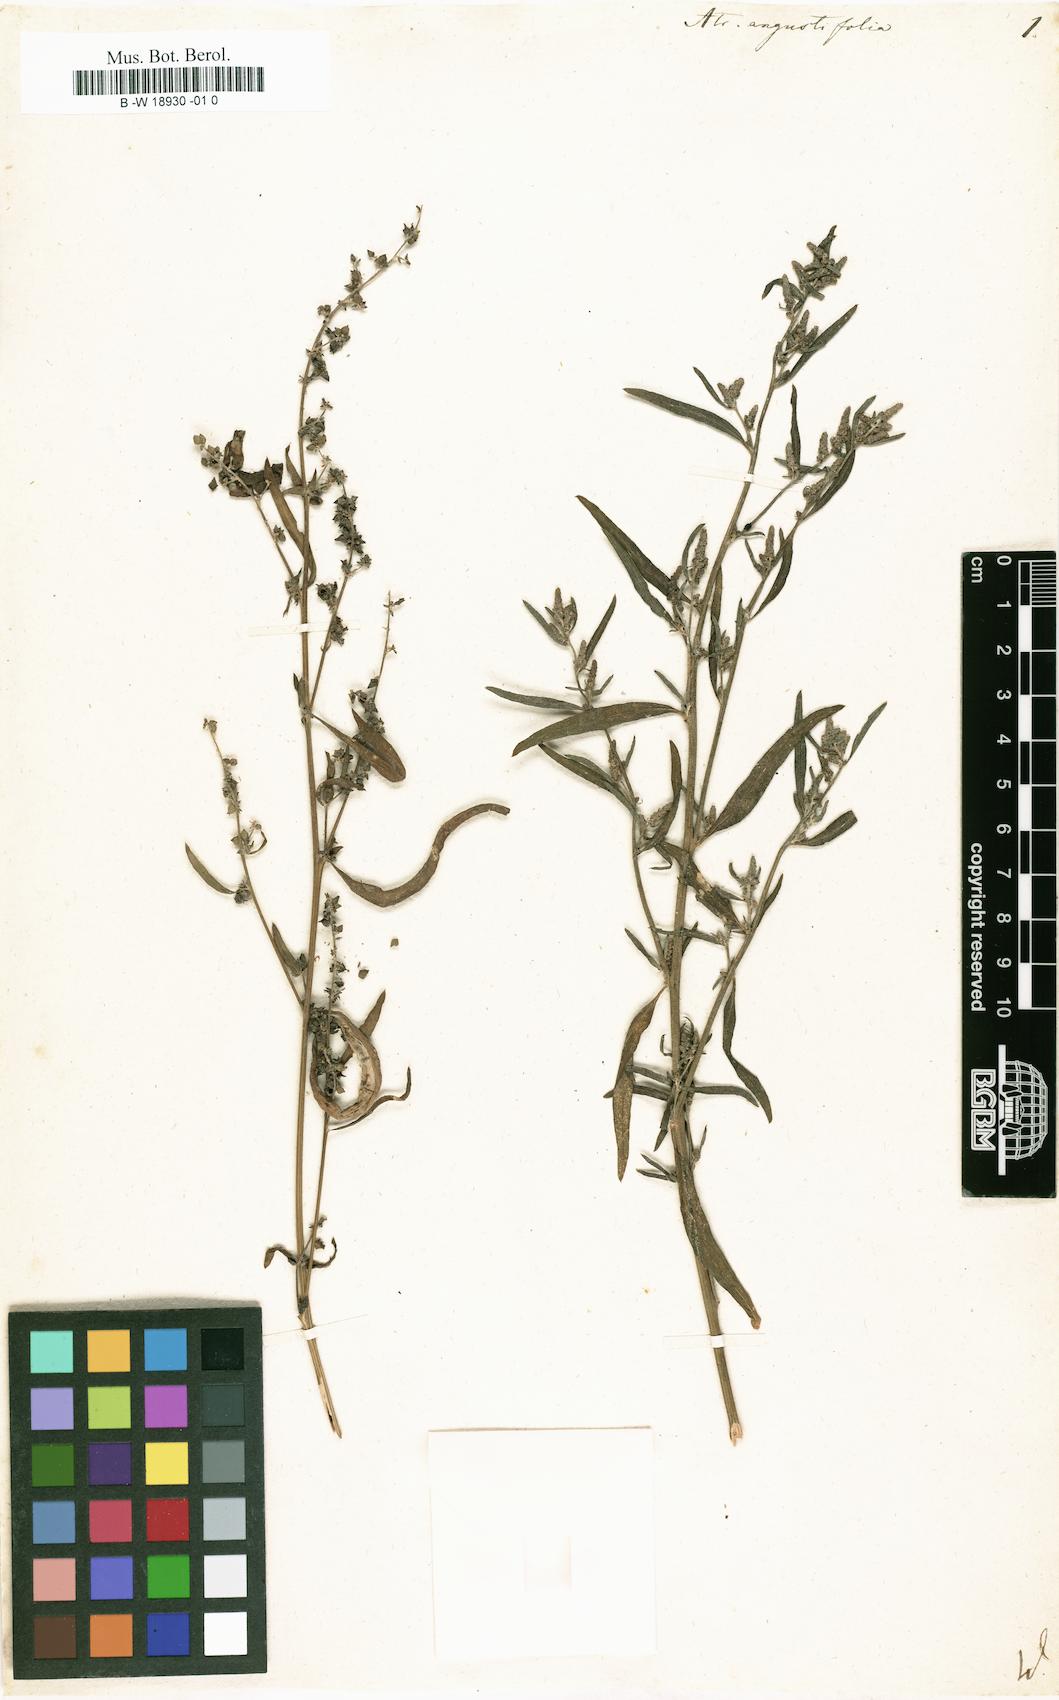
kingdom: Plantae
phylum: Tracheophyta
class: Magnoliopsida
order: Caryophyllales
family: Amaranthaceae
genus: Atriplex
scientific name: Atriplex repanda
